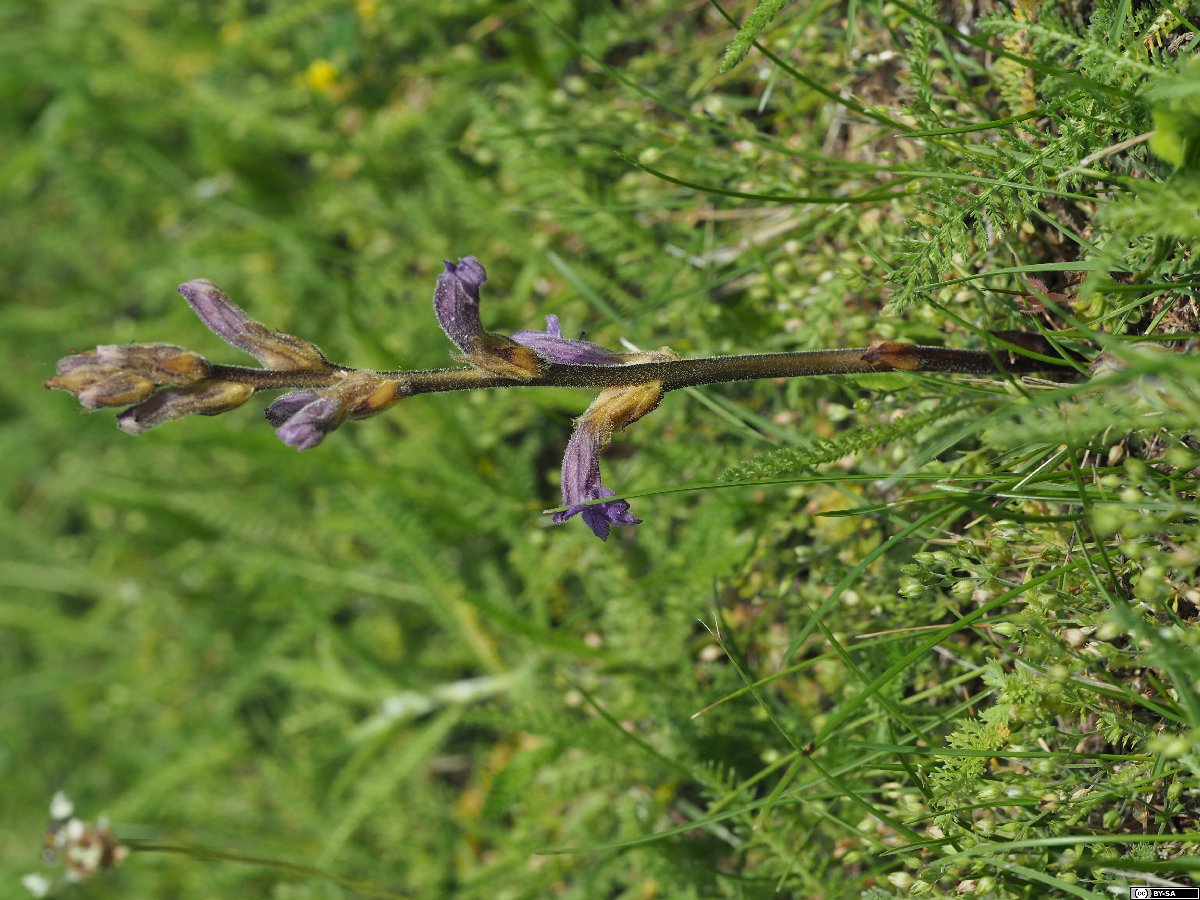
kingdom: Plantae
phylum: Tracheophyta
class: Magnoliopsida
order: Lamiales
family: Orobanchaceae
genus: Phelipanche
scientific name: Phelipanche purpurea
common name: Purple broomrape
